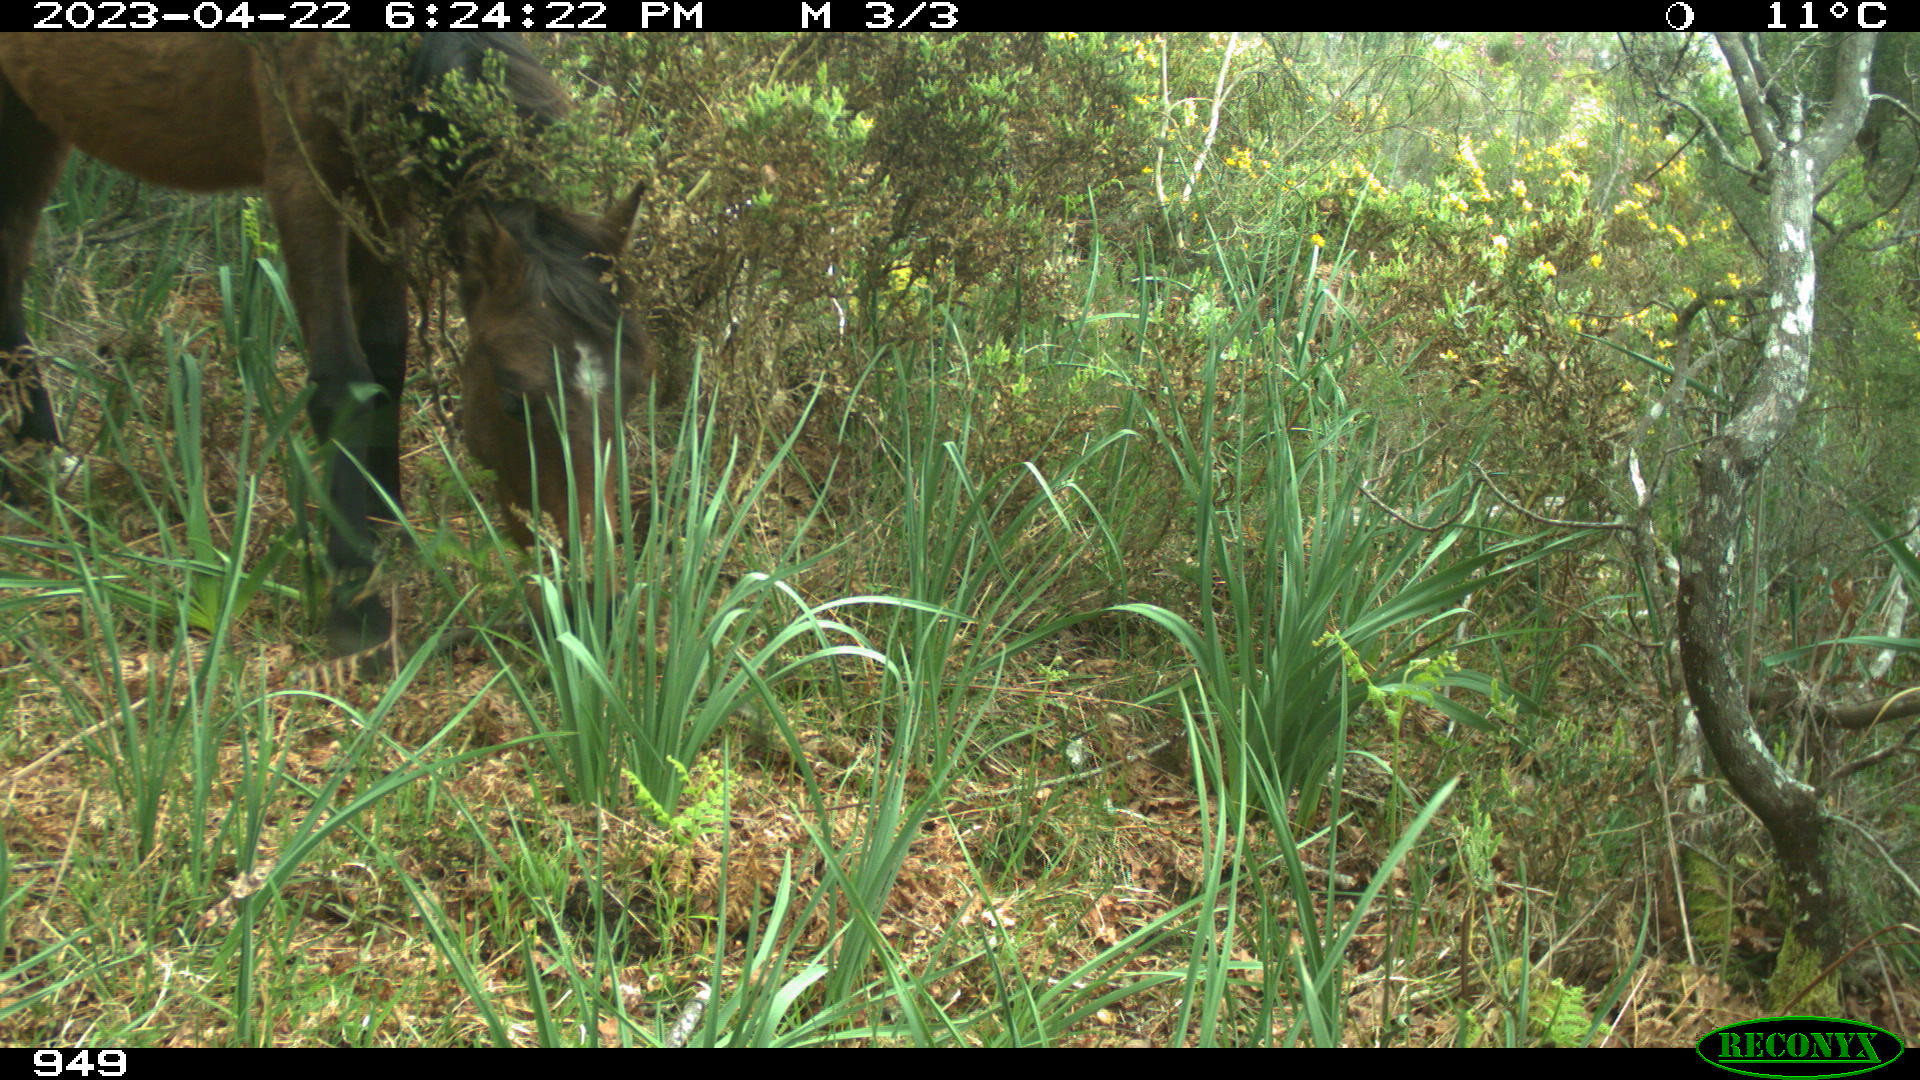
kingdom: Animalia
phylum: Chordata
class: Mammalia
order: Perissodactyla
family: Equidae
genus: Equus
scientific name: Equus caballus
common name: Horse
